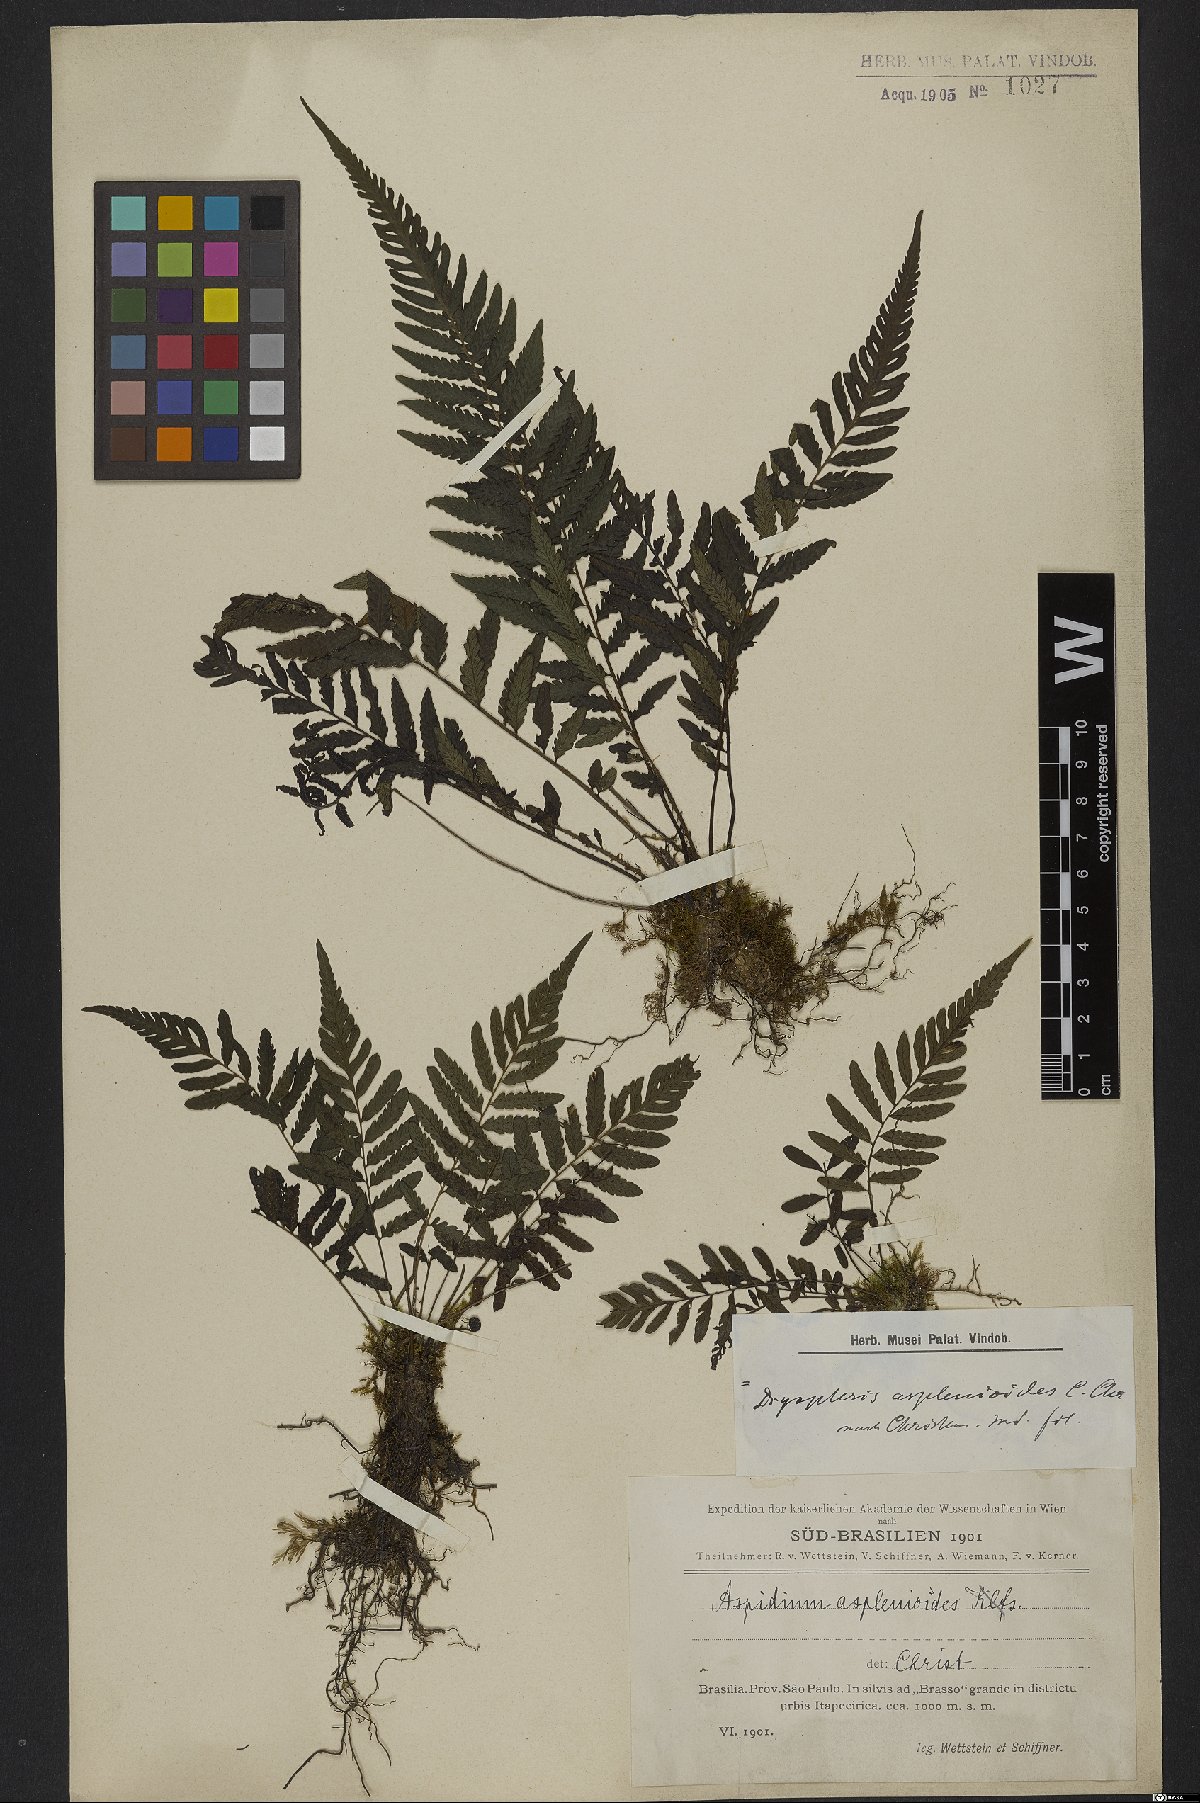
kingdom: Plantae
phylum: Tracheophyta
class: Polypodiopsida
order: Polypodiales
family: Thelypteridaceae
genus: Amauropelta
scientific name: Amauropelta aspidioides
